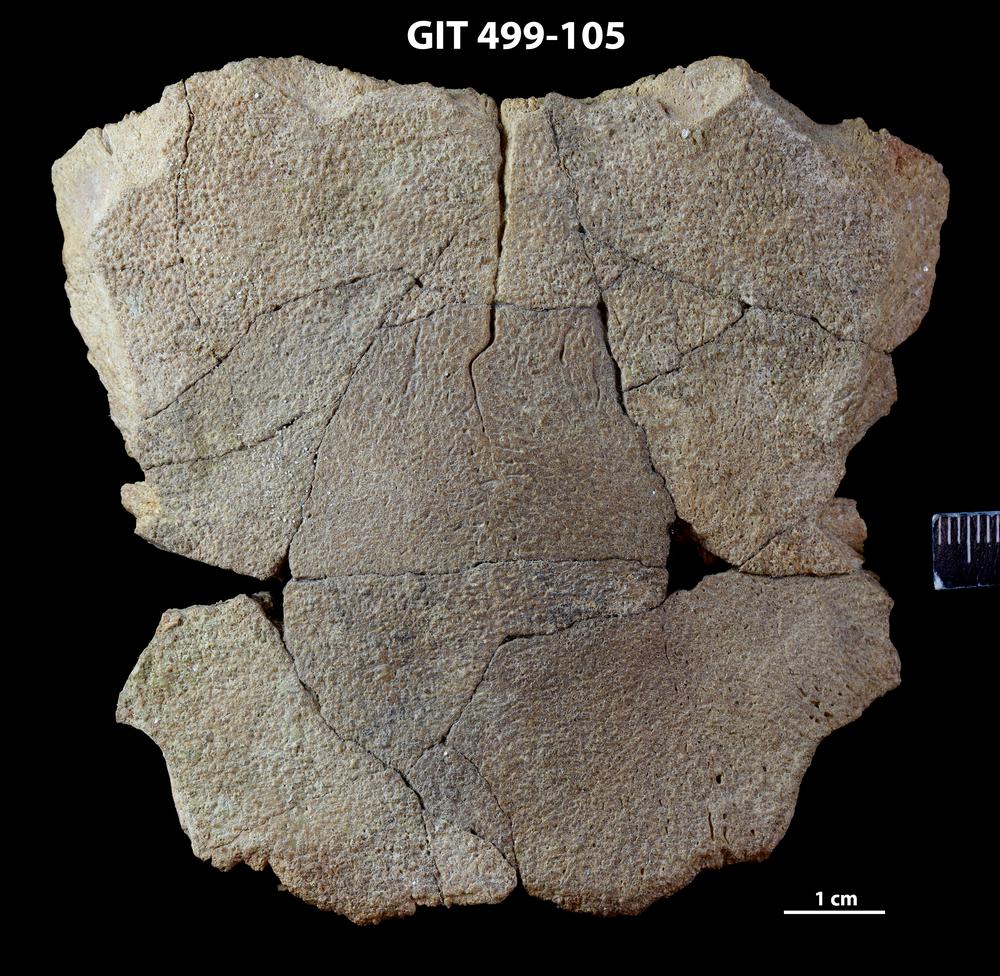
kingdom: Animalia
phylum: Chordata
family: Holoptychiidae
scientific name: Holoptychiidae
